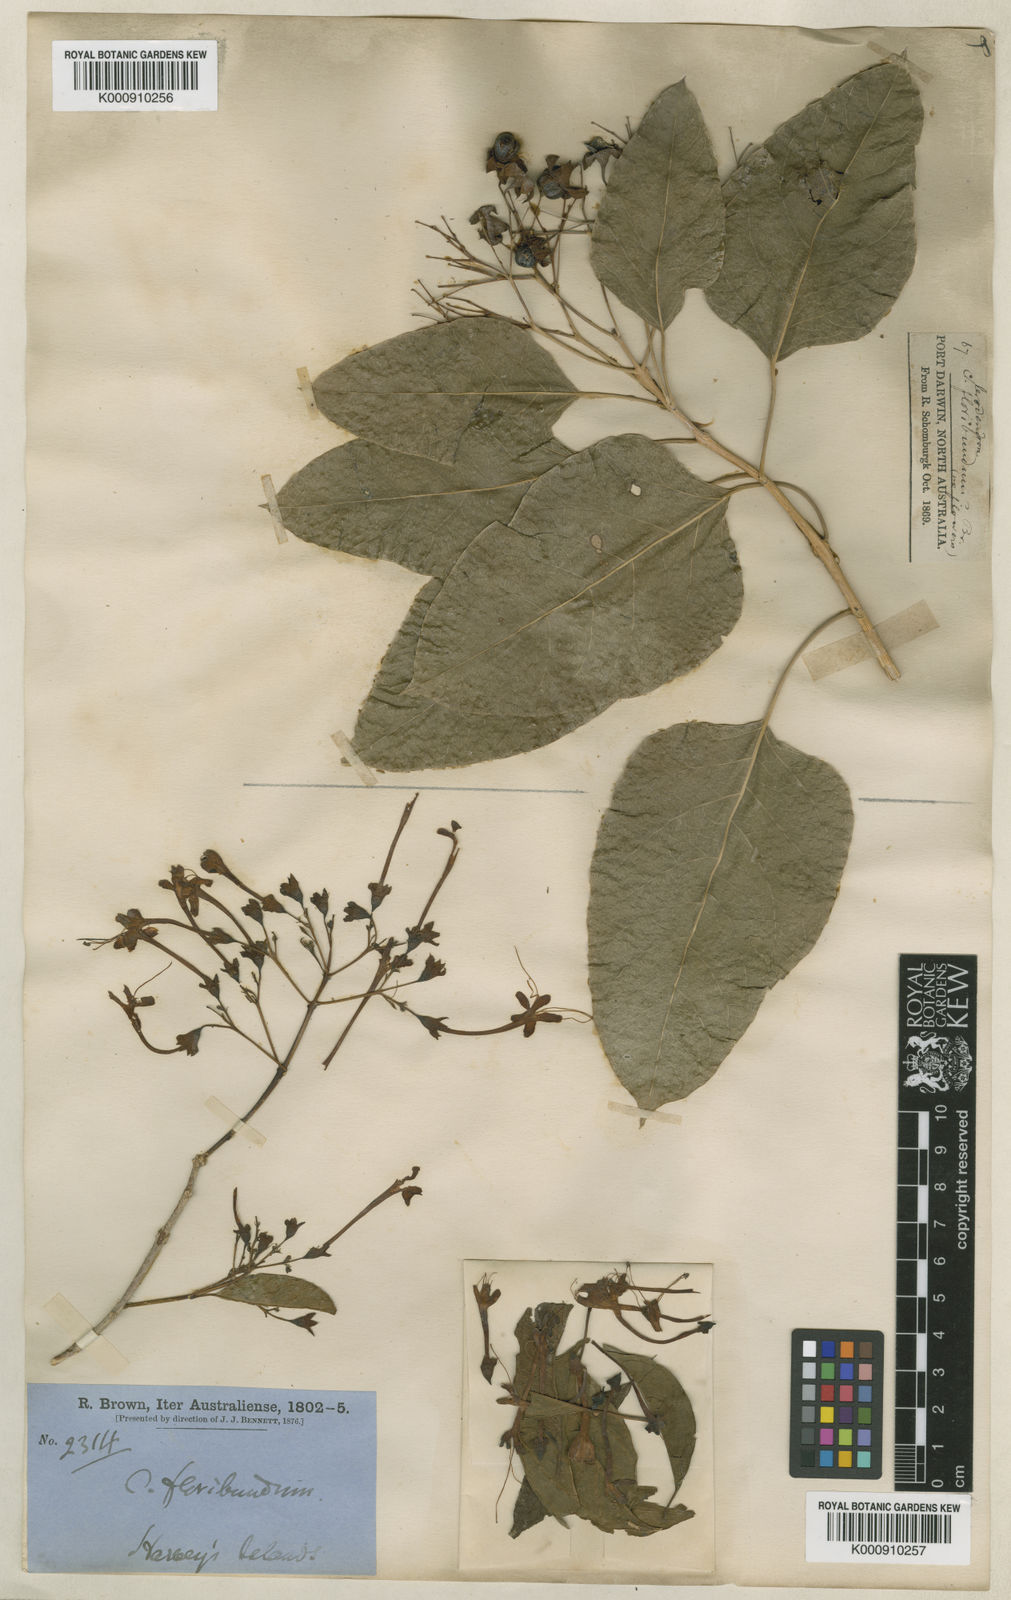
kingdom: Plantae
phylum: Tracheophyta
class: Magnoliopsida
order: Lamiales
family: Lamiaceae
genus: Clerodendrum
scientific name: Clerodendrum floribundum
